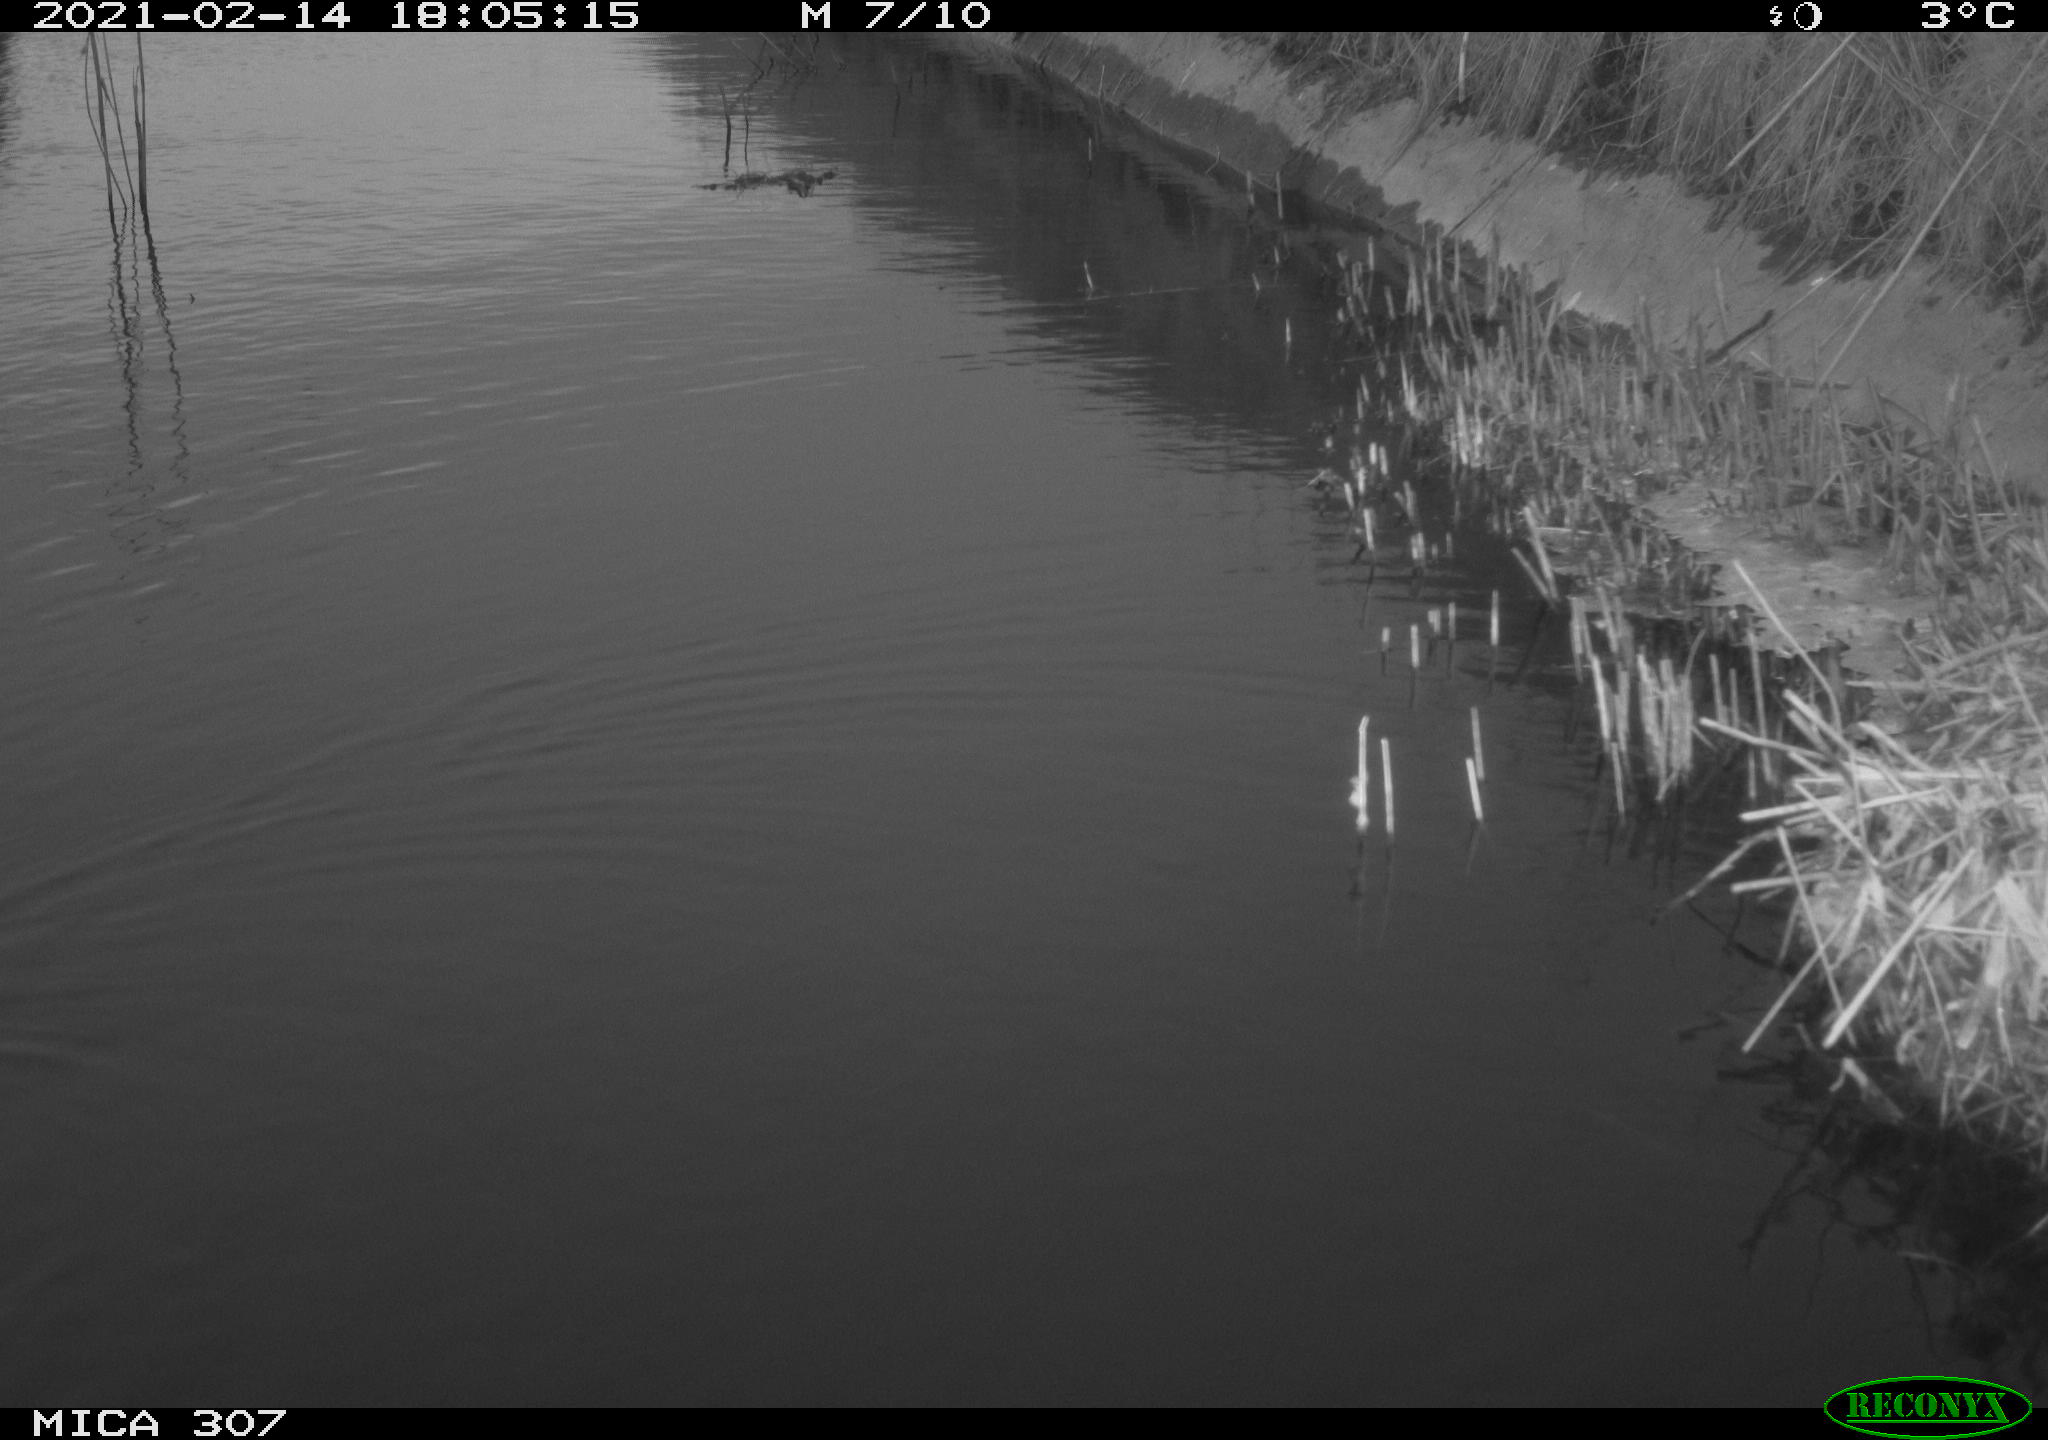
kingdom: Animalia
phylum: Chordata
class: Aves
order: Gruiformes
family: Rallidae
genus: Rallus
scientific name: Rallus aquaticus
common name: Water rail
